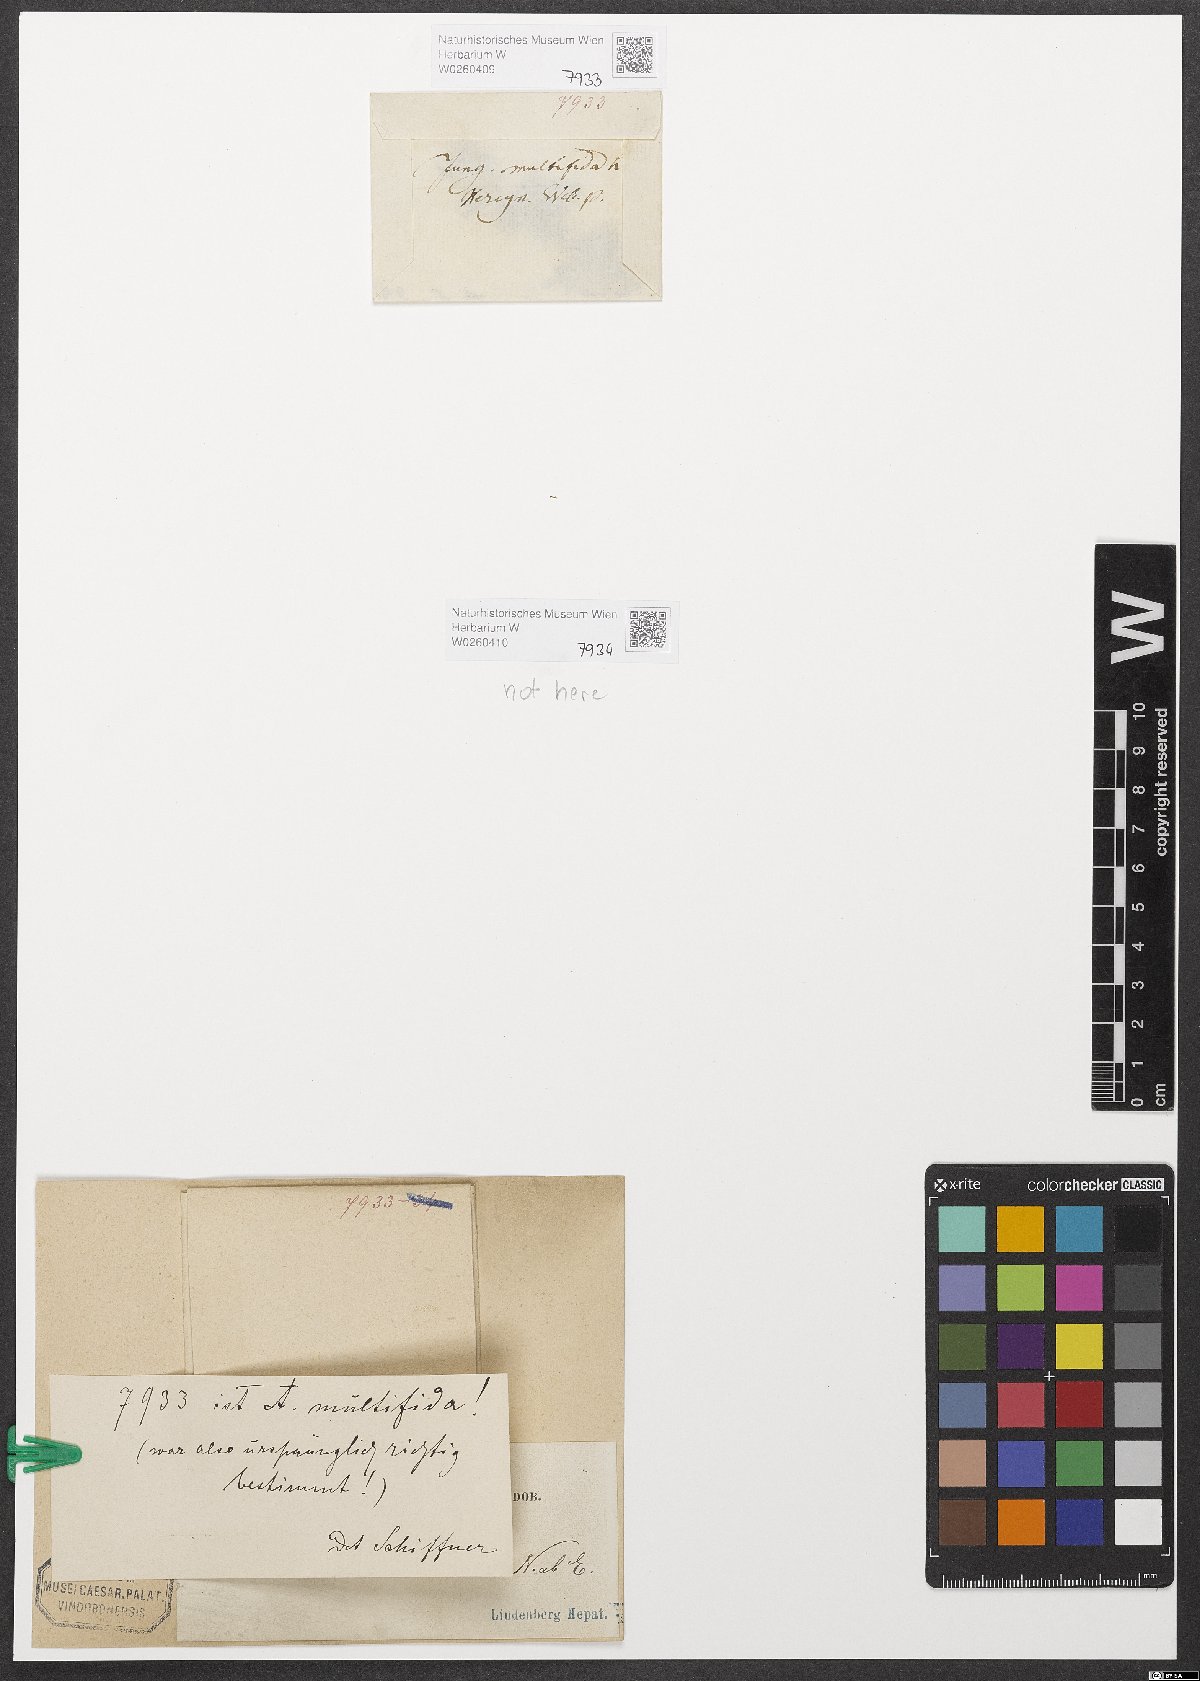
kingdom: Plantae
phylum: Marchantiophyta
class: Jungermanniopsida
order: Metzgeriales
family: Aneuraceae
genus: Riccardia
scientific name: Riccardia multifida
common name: Delicate germanderwort
